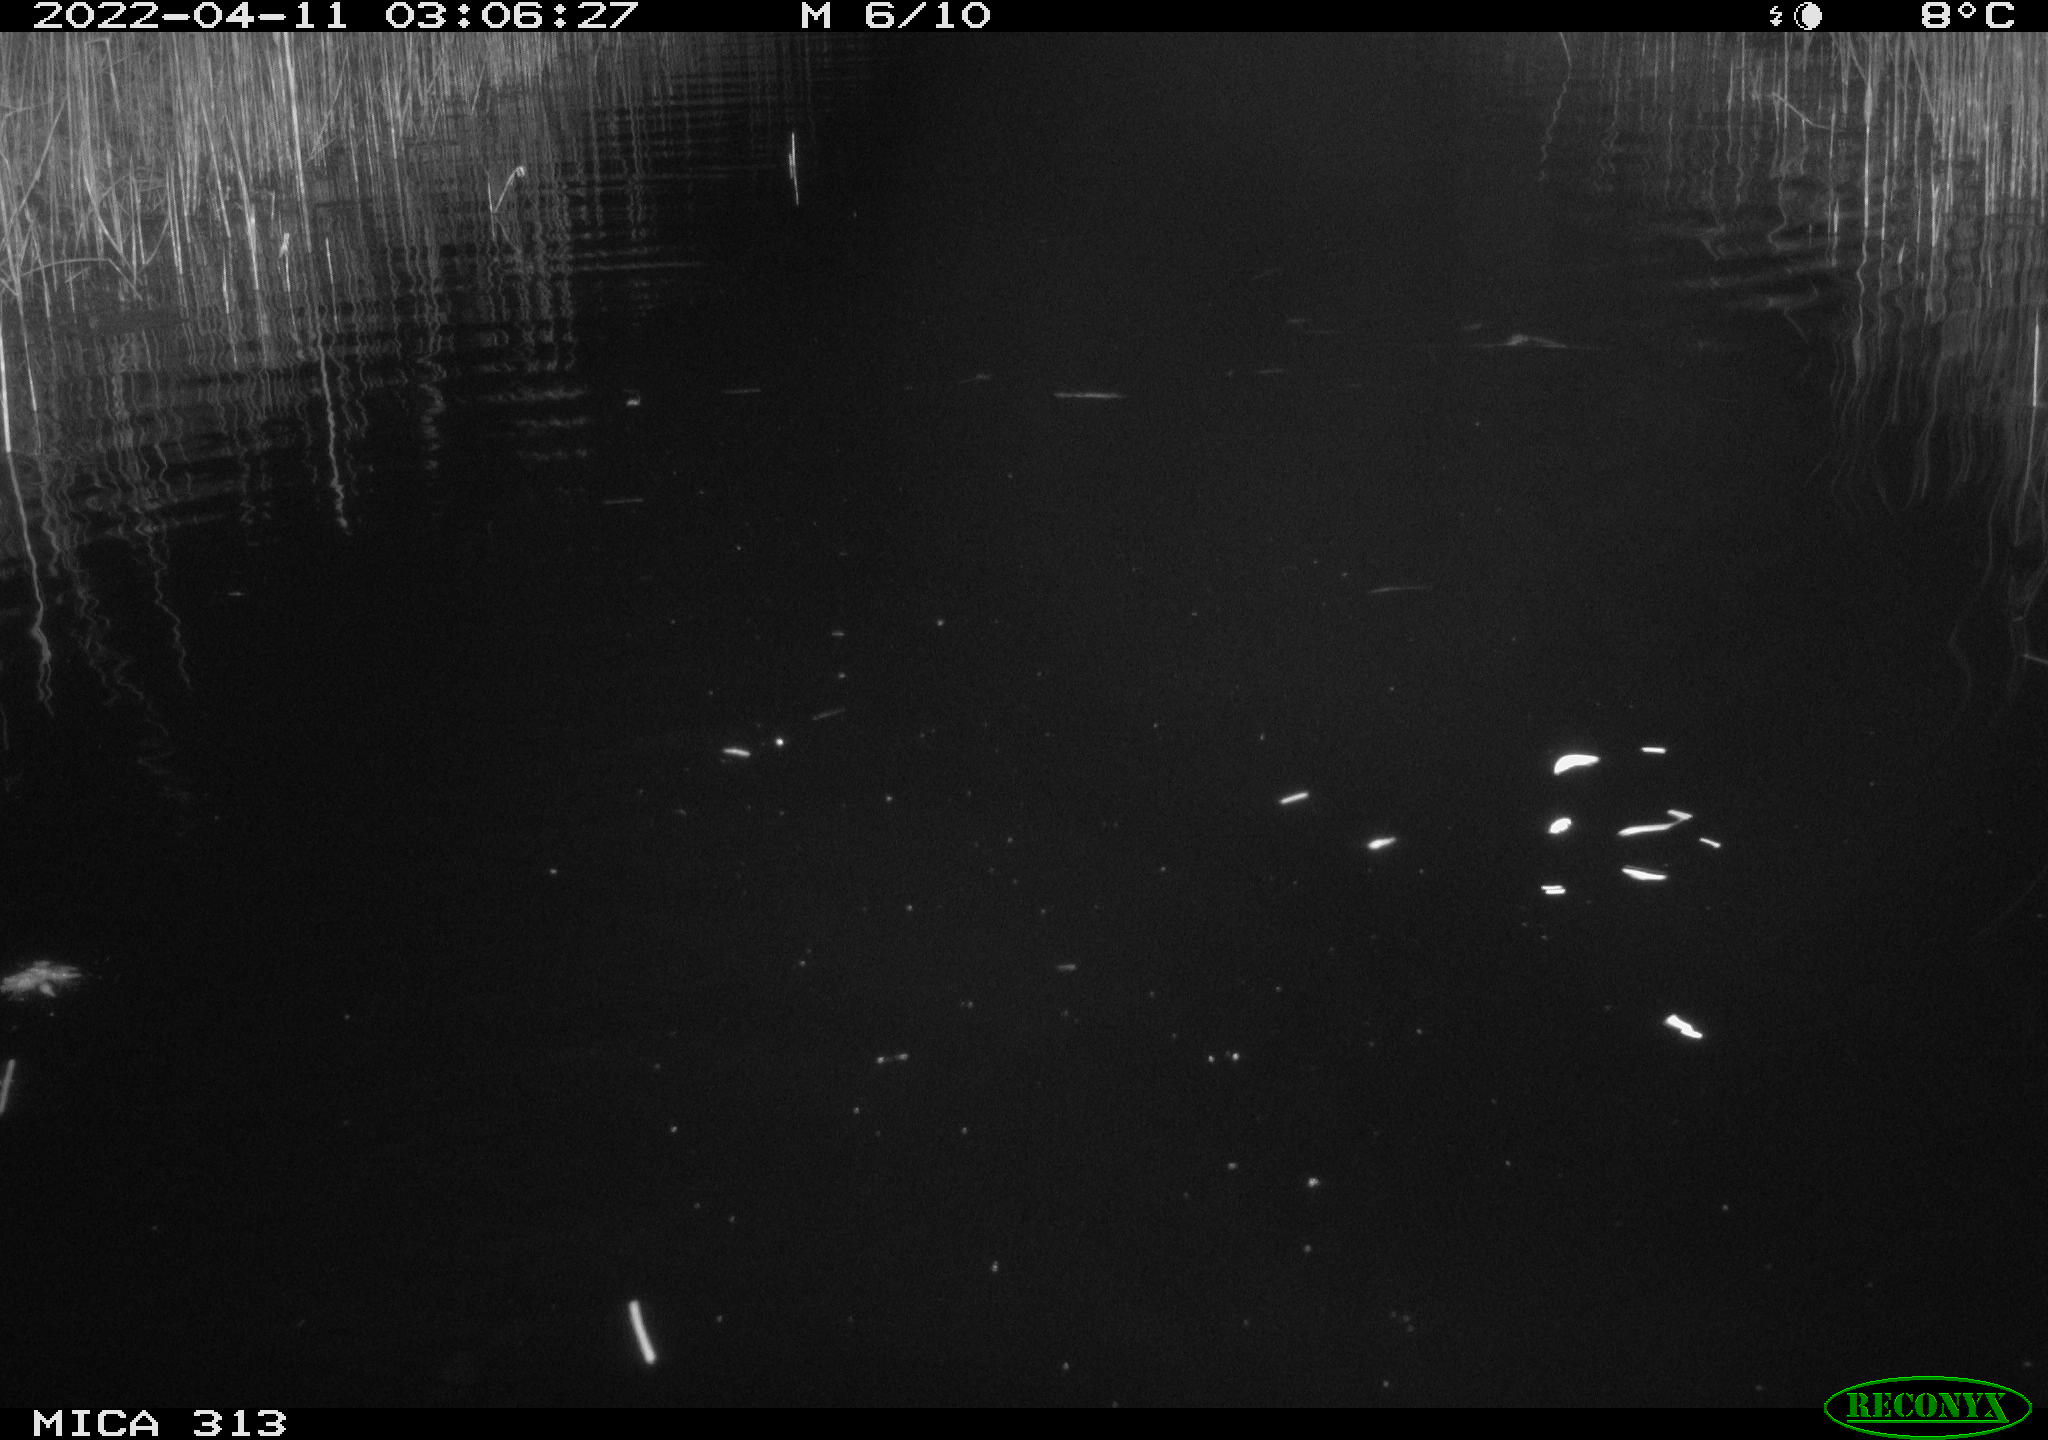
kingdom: Animalia
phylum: Chordata
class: Mammalia
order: Rodentia
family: Cricetidae
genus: Ondatra
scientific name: Ondatra zibethicus
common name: Muskrat
